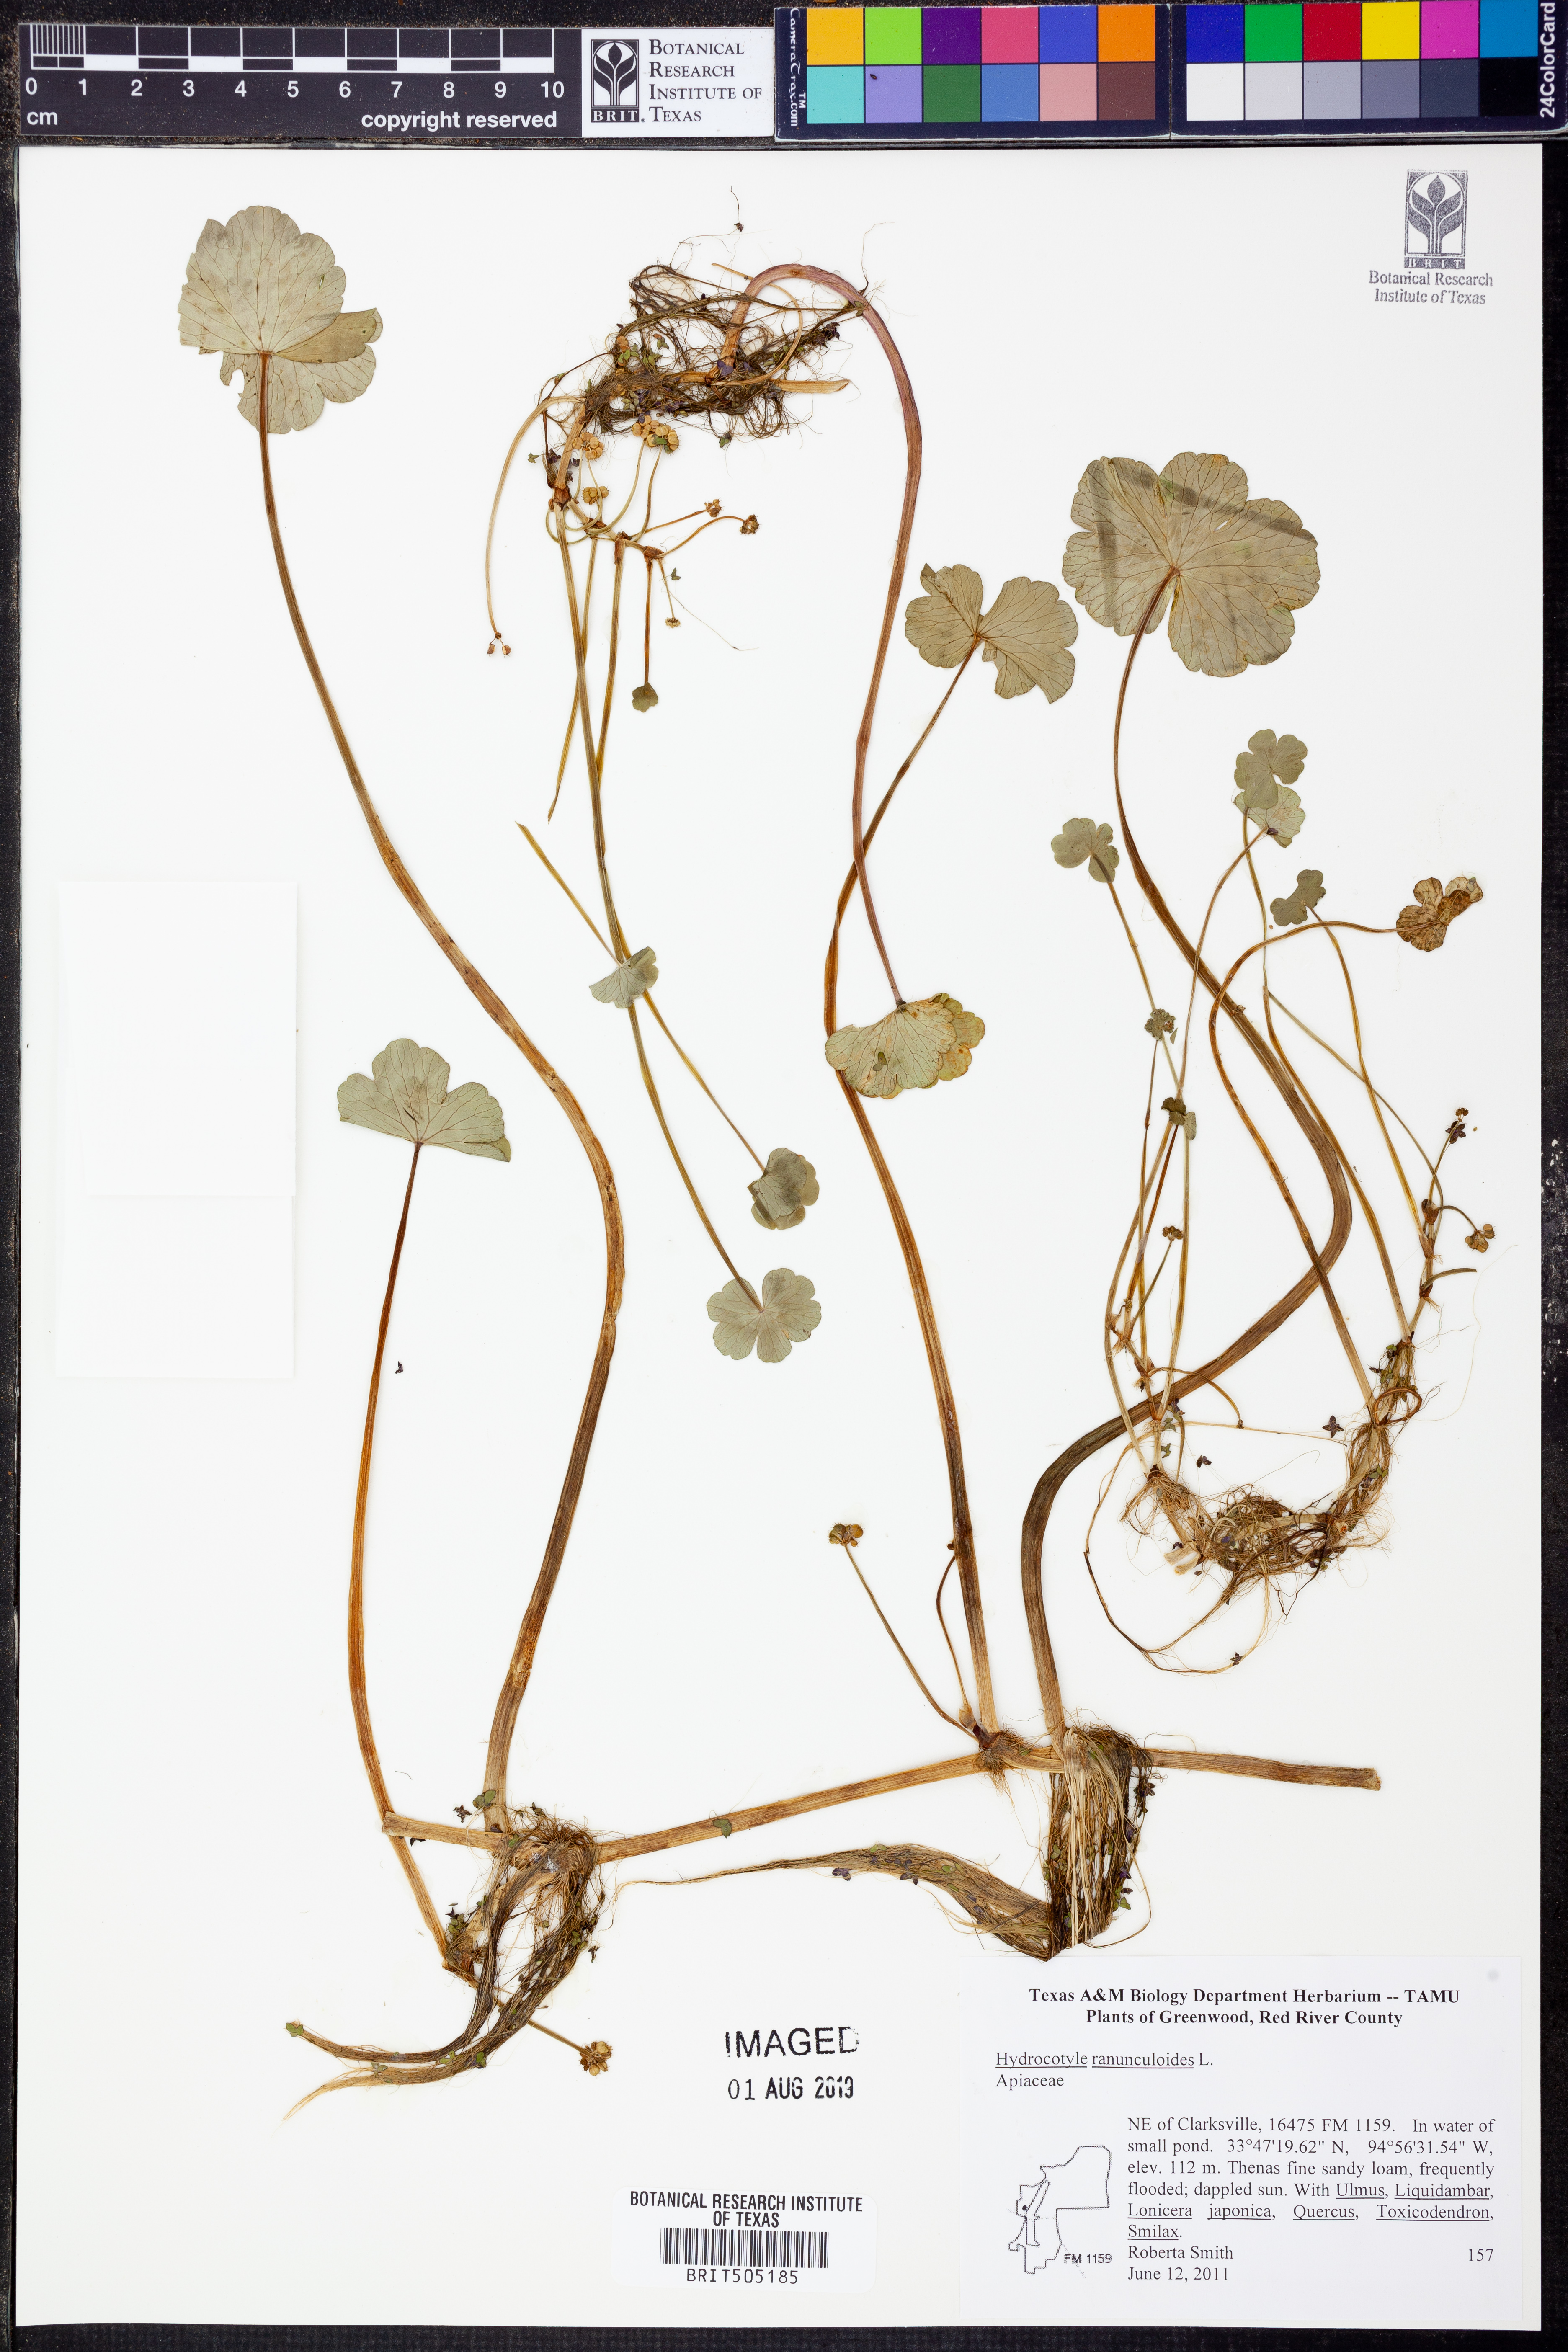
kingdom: Plantae
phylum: Tracheophyta
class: Magnoliopsida
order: Apiales
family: Araliaceae
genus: Hydrocotyle
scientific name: Hydrocotyle ranunculoides
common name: Floating pennywort
